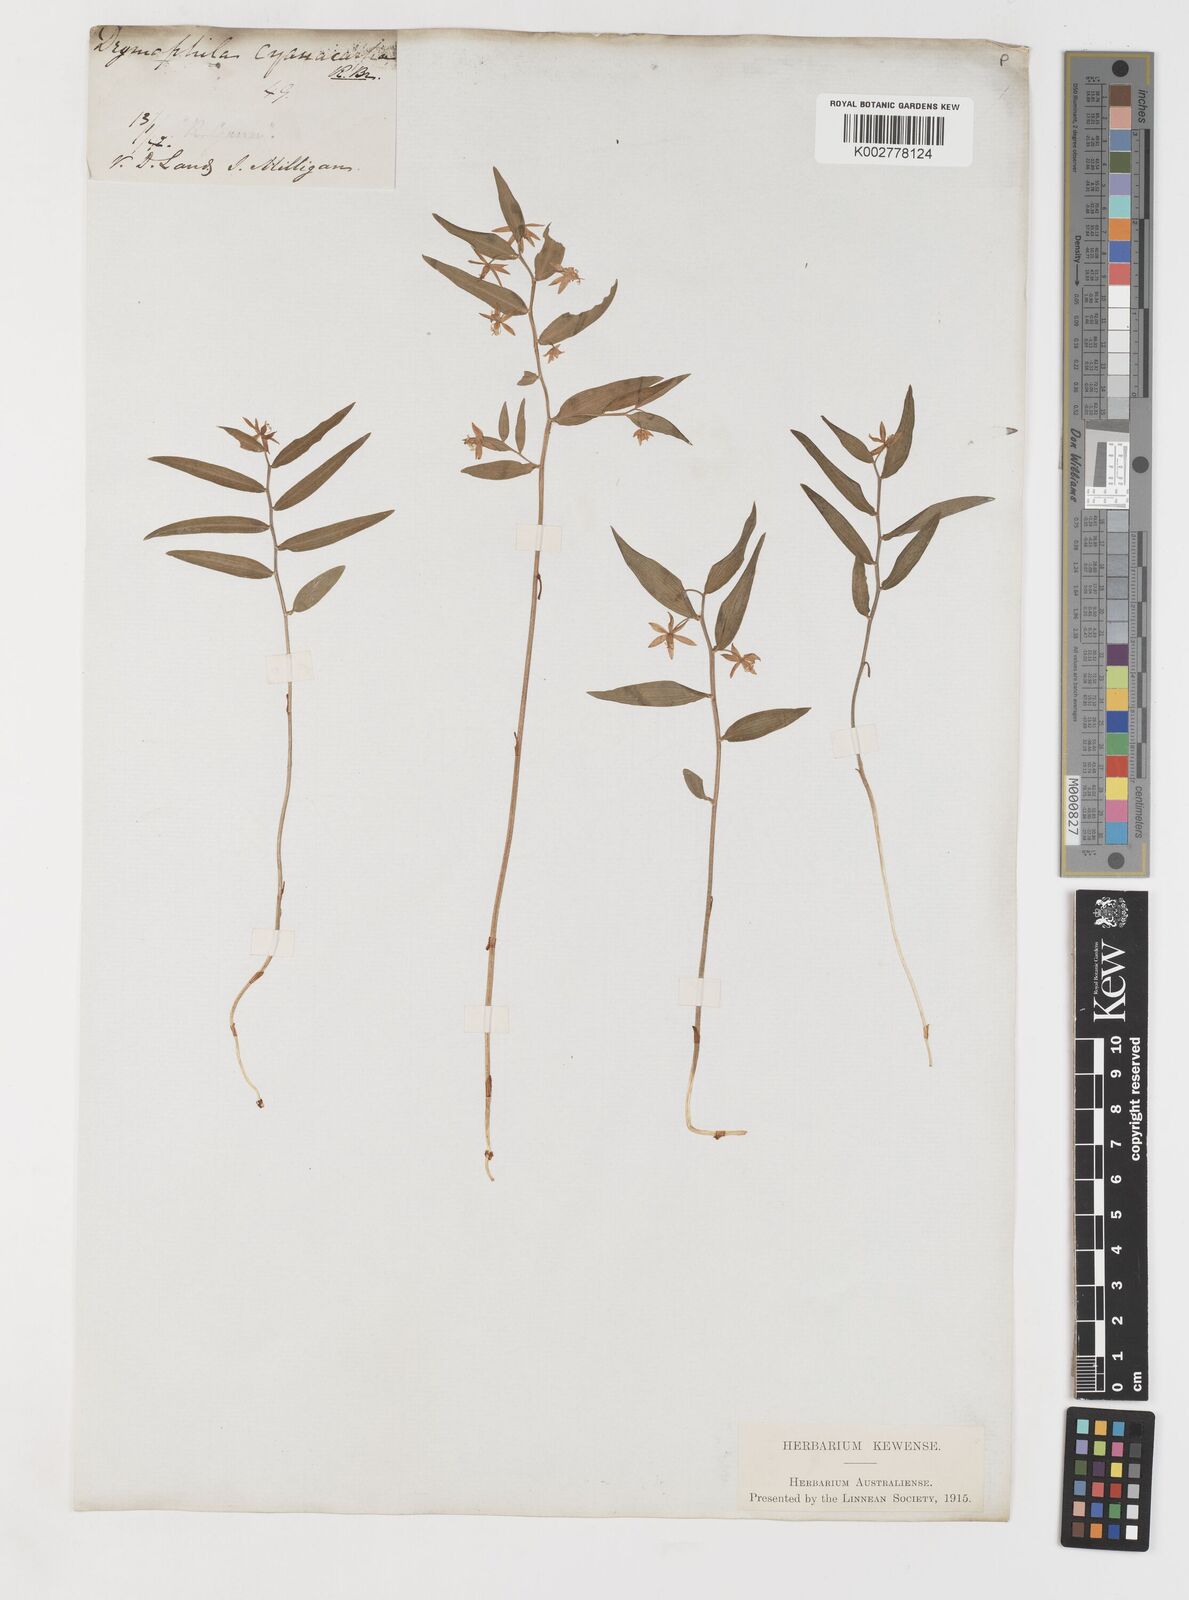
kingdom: Plantae
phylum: Tracheophyta
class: Liliopsida
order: Liliales
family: Alstroemeriaceae
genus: Drymophila
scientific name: Drymophila cyanocarpa
